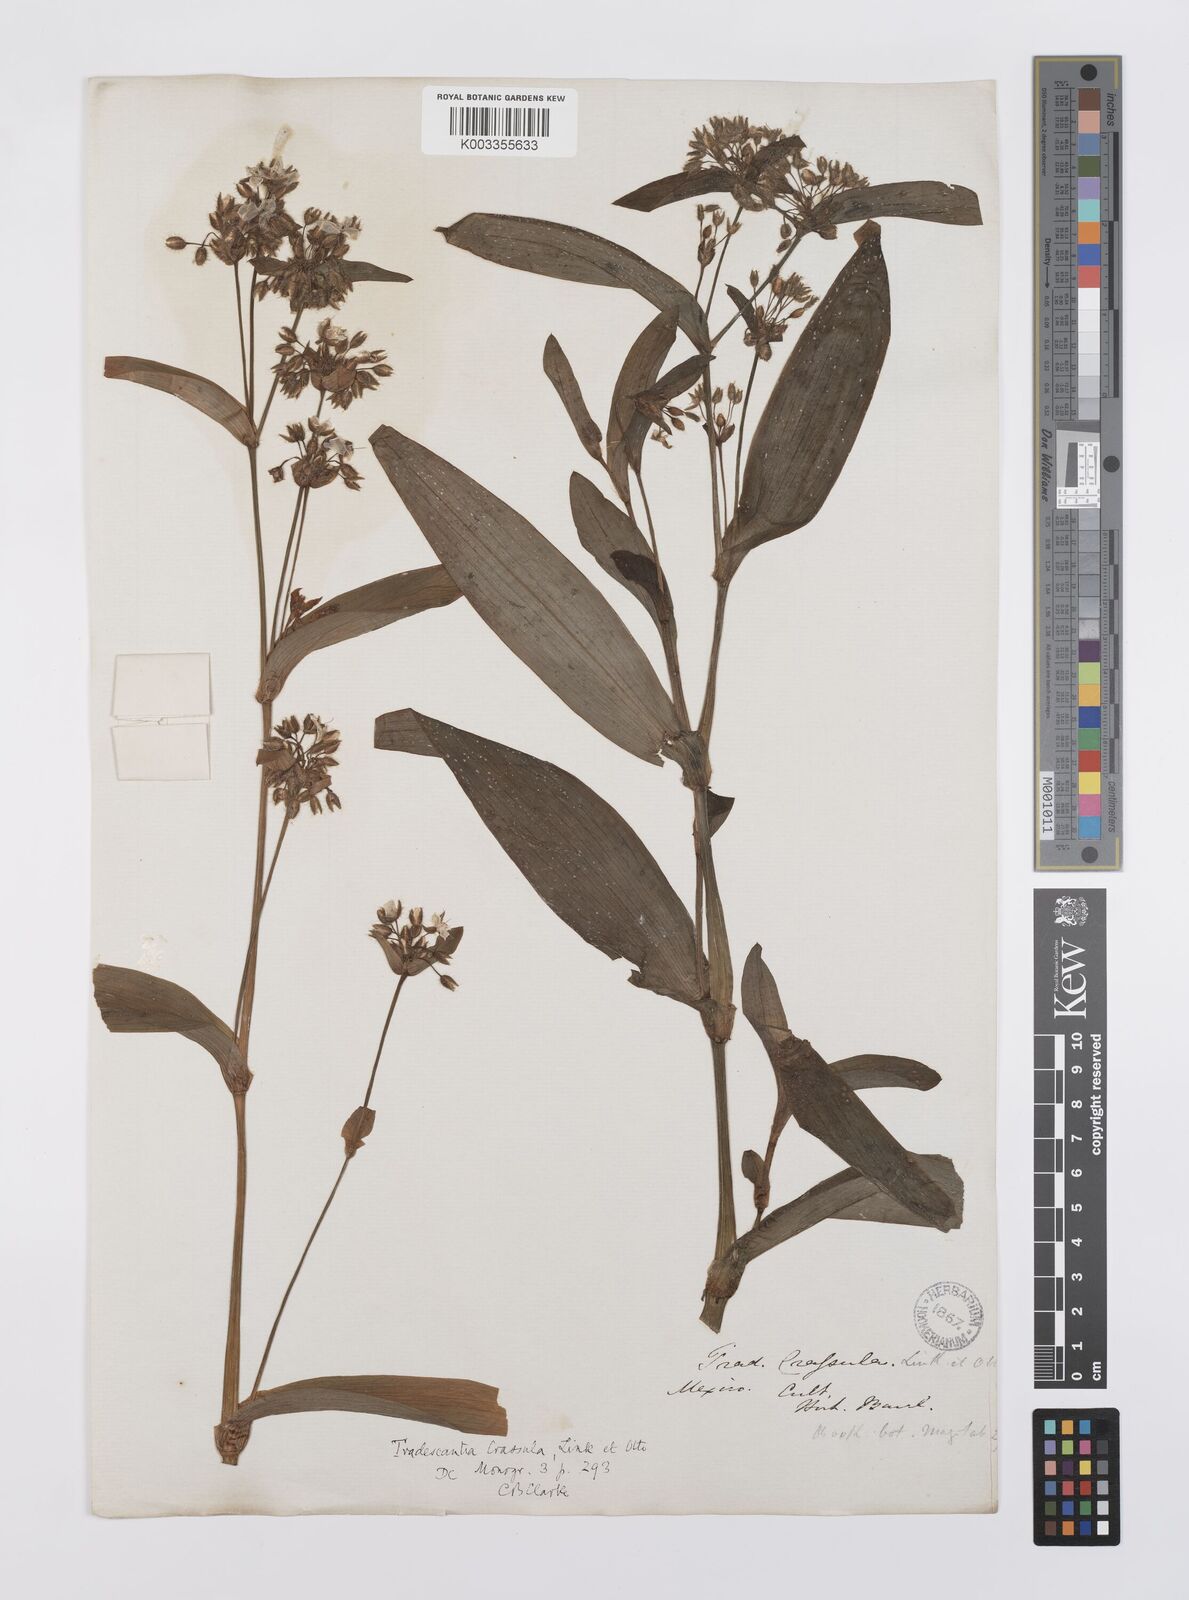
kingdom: Plantae
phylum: Tracheophyta
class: Liliopsida
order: Commelinales
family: Commelinaceae
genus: Tradescantia
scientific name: Tradescantia crassula
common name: Succulent spiderwort
